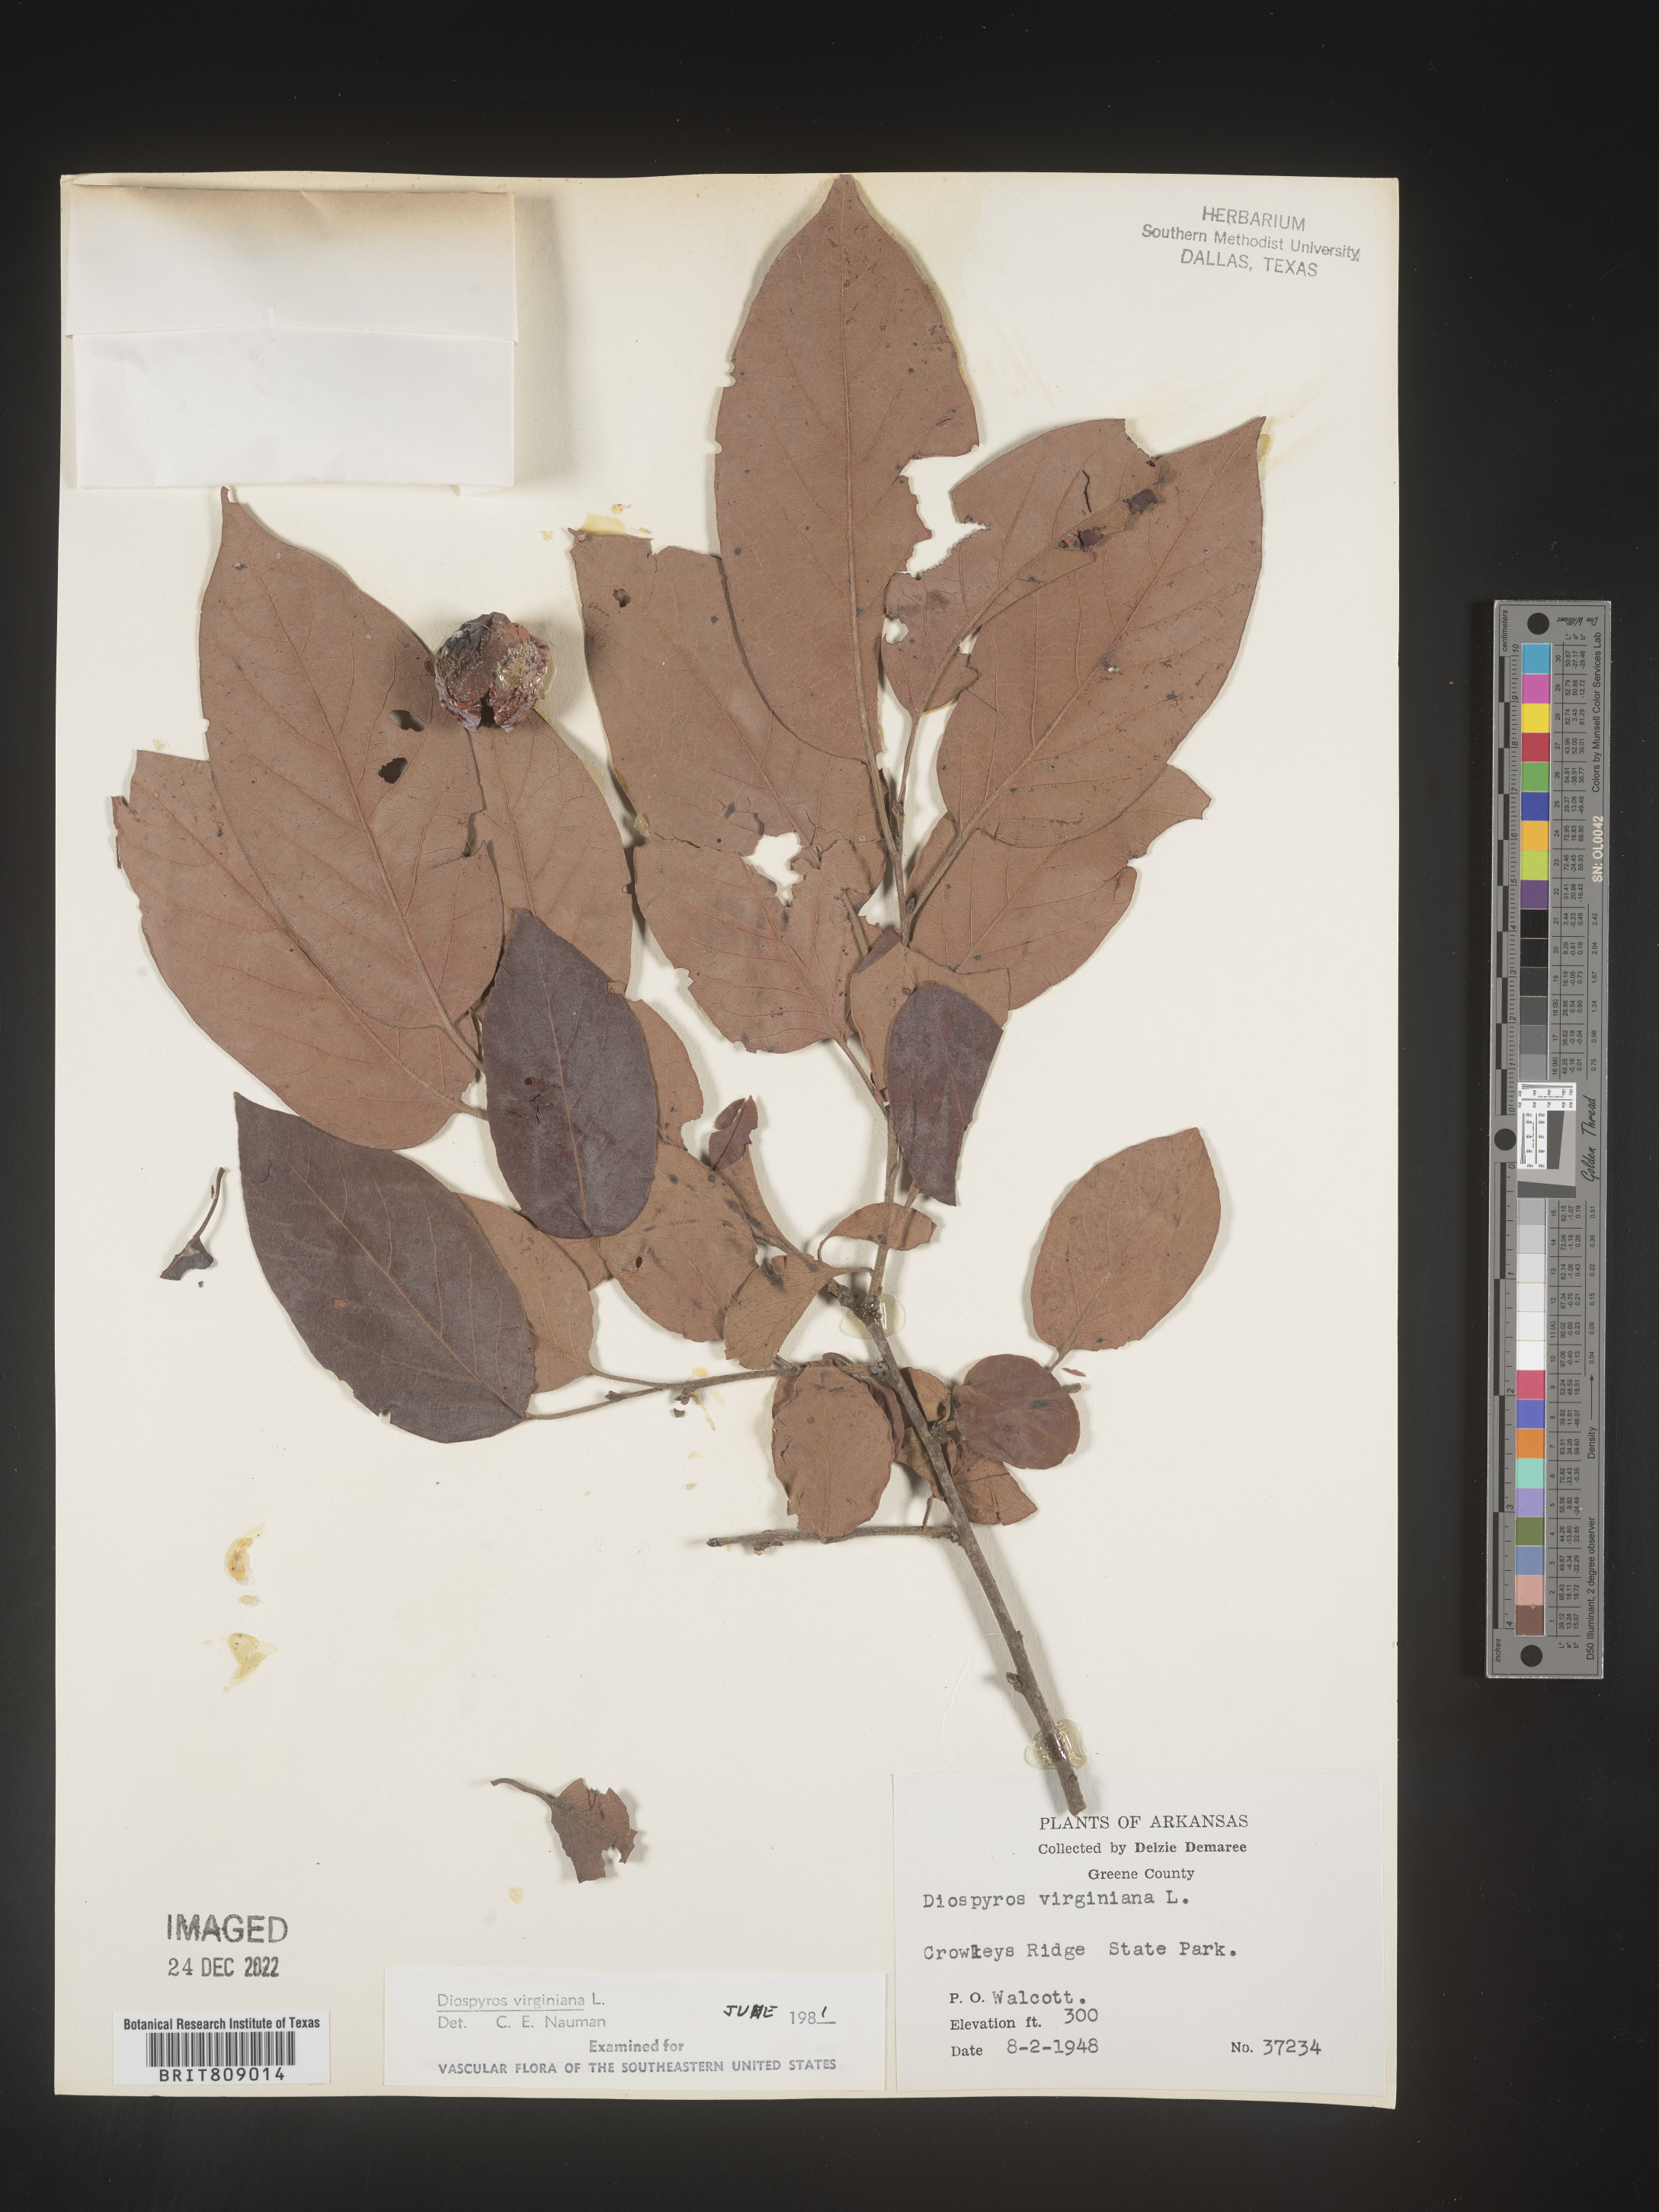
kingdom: Plantae
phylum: Tracheophyta
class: Magnoliopsida
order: Ericales
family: Ebenaceae
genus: Diospyros
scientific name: Diospyros virginiana
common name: Persimmon
